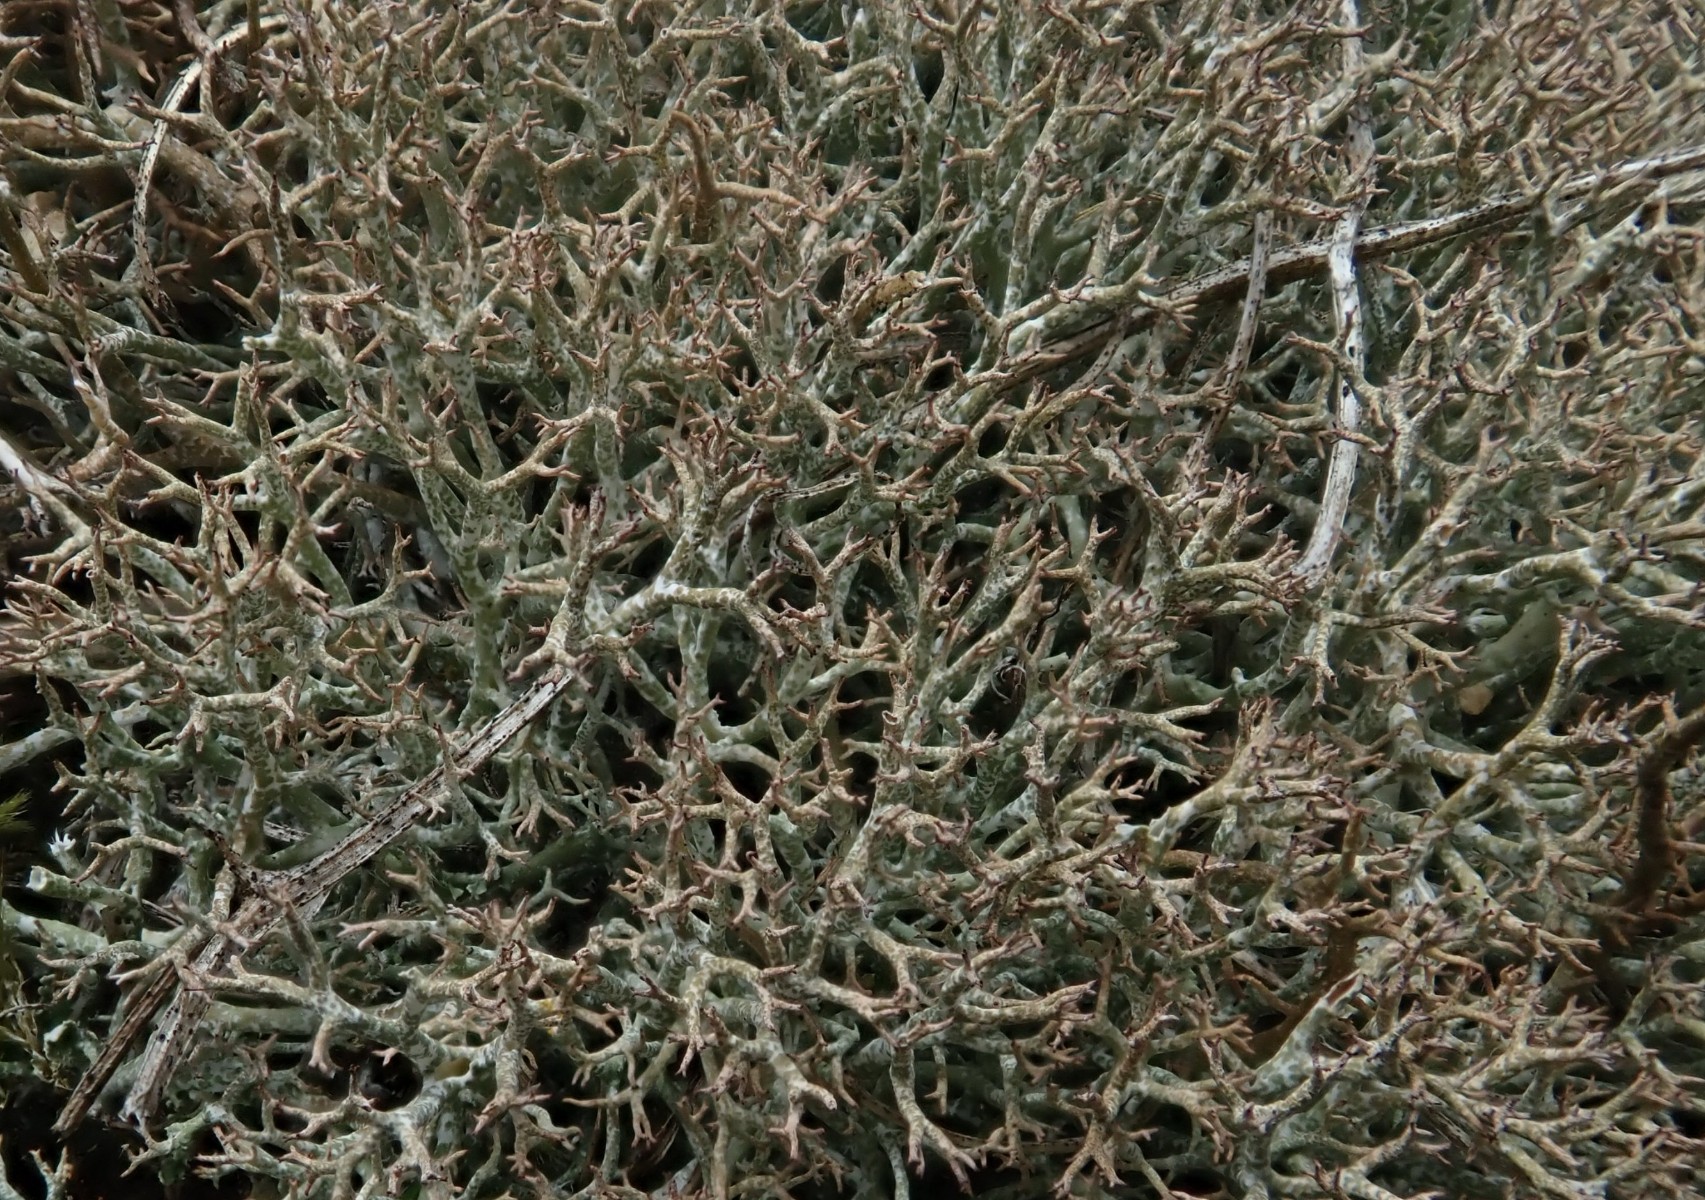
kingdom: Fungi
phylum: Ascomycota
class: Lecanoromycetes
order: Lecanorales
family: Cladoniaceae
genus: Cladonia
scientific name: Cladonia rangiformis
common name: spættet bægerlav
